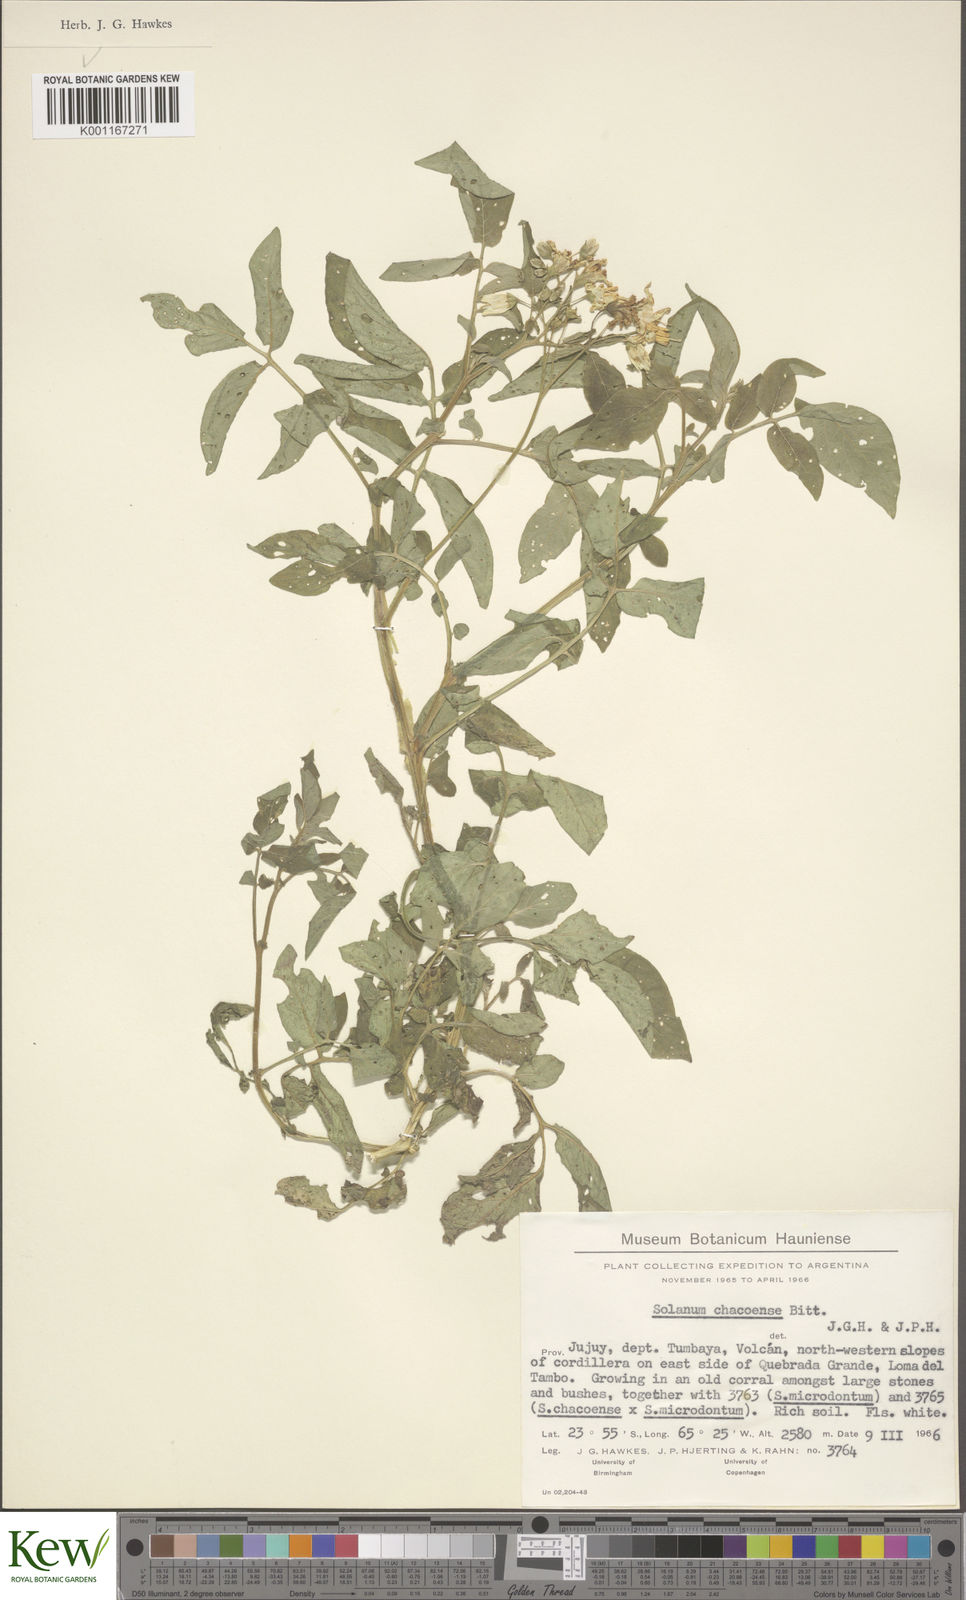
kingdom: Plantae
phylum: Tracheophyta
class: Magnoliopsida
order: Solanales
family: Solanaceae
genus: Solanum
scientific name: Solanum chacoense
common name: Chaco potato
